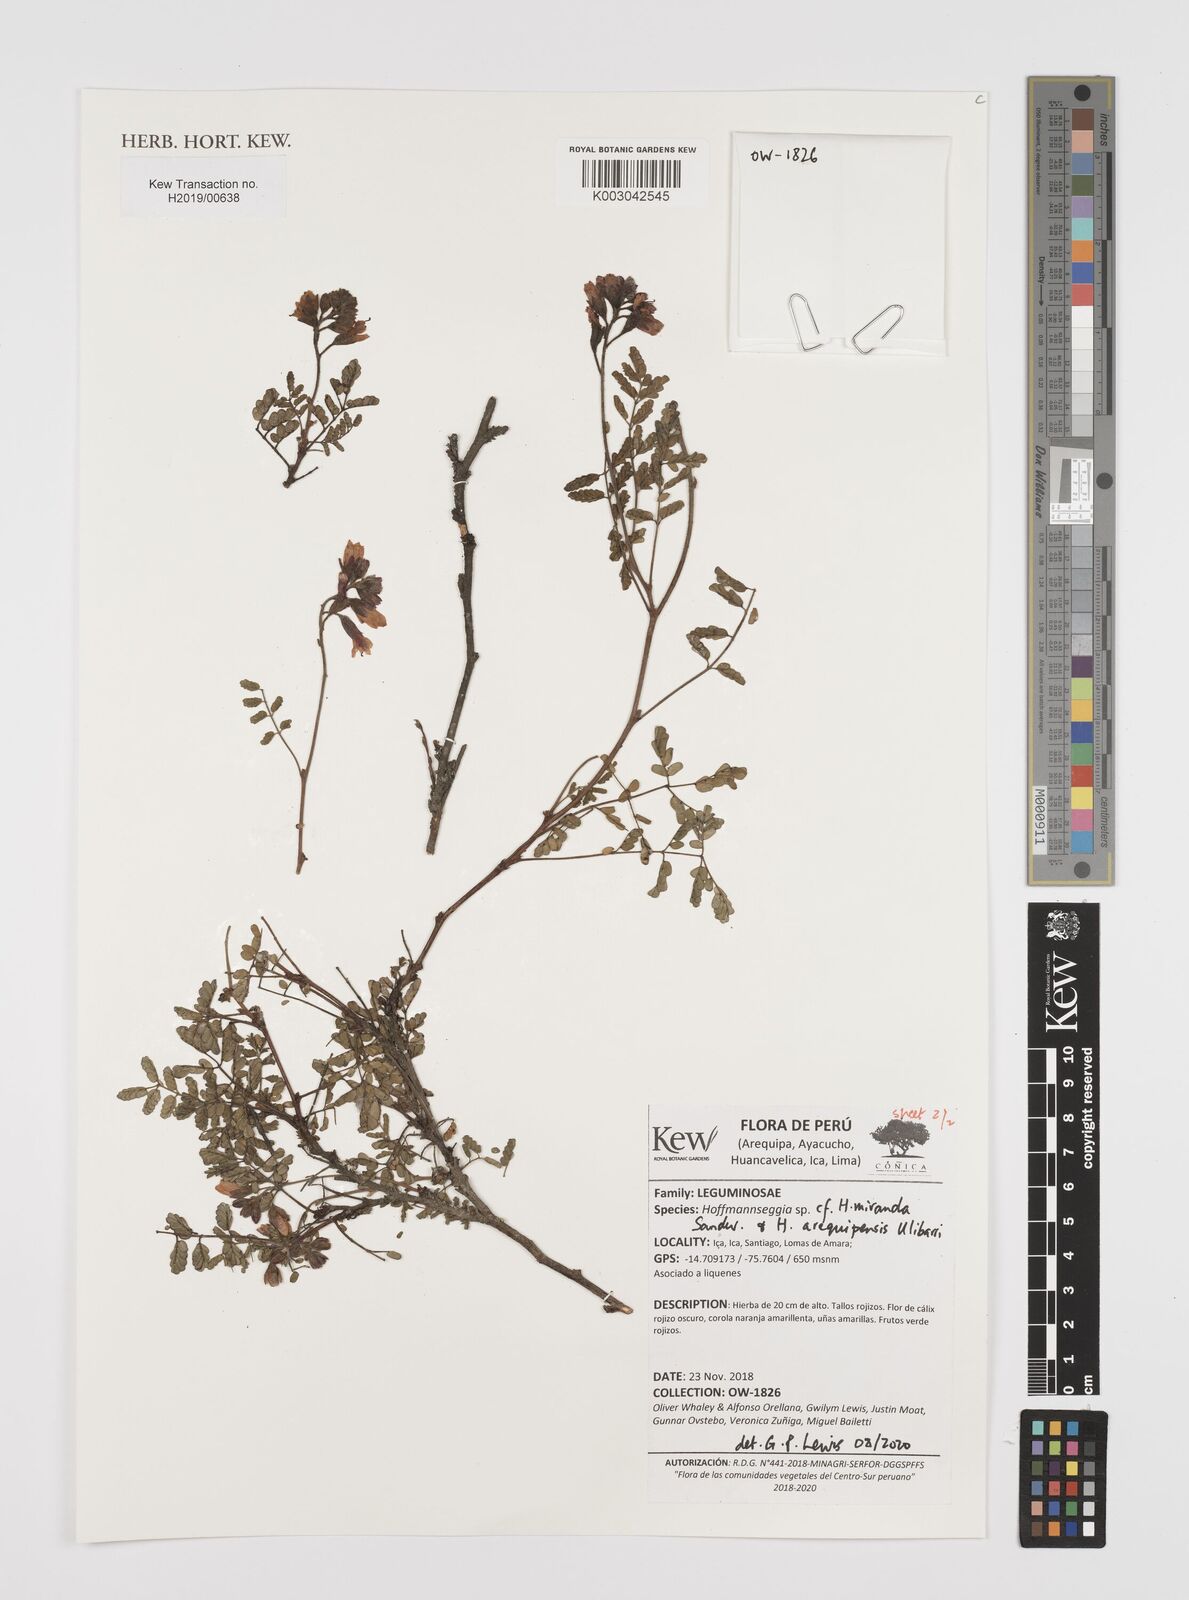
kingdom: Plantae
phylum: Tracheophyta
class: Magnoliopsida
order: Fabales
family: Fabaceae
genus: Hoffmannseggia
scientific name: Hoffmannseggia miranda
